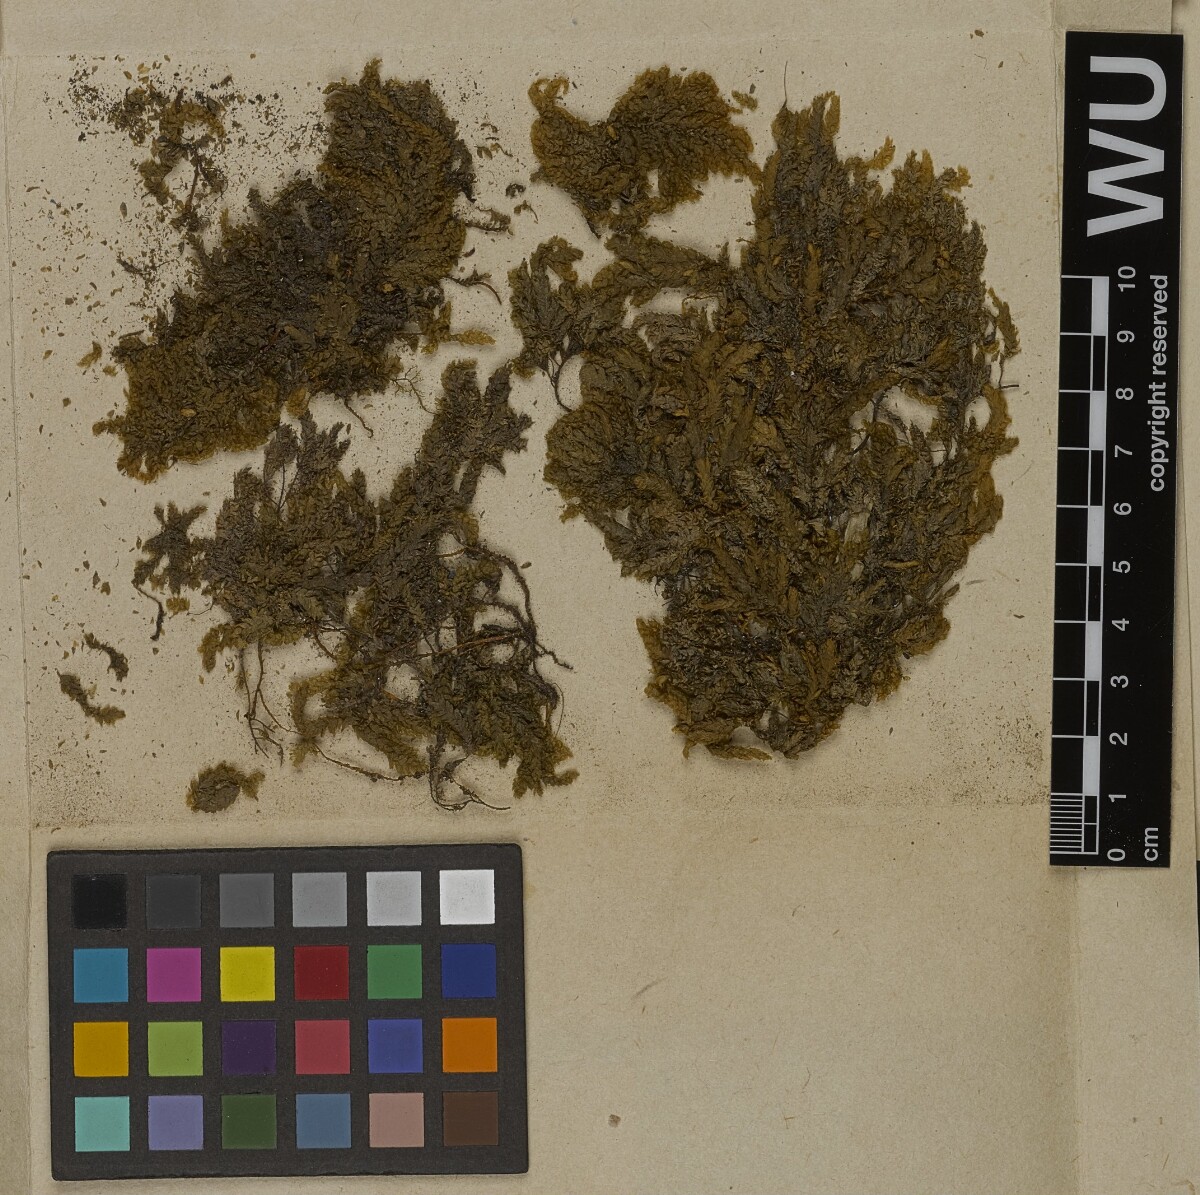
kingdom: Plantae
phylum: Bryophyta
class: Bryopsida
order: Hypnales
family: Neckeraceae
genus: Thamnobryum
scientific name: Thamnobryum neckeroides
